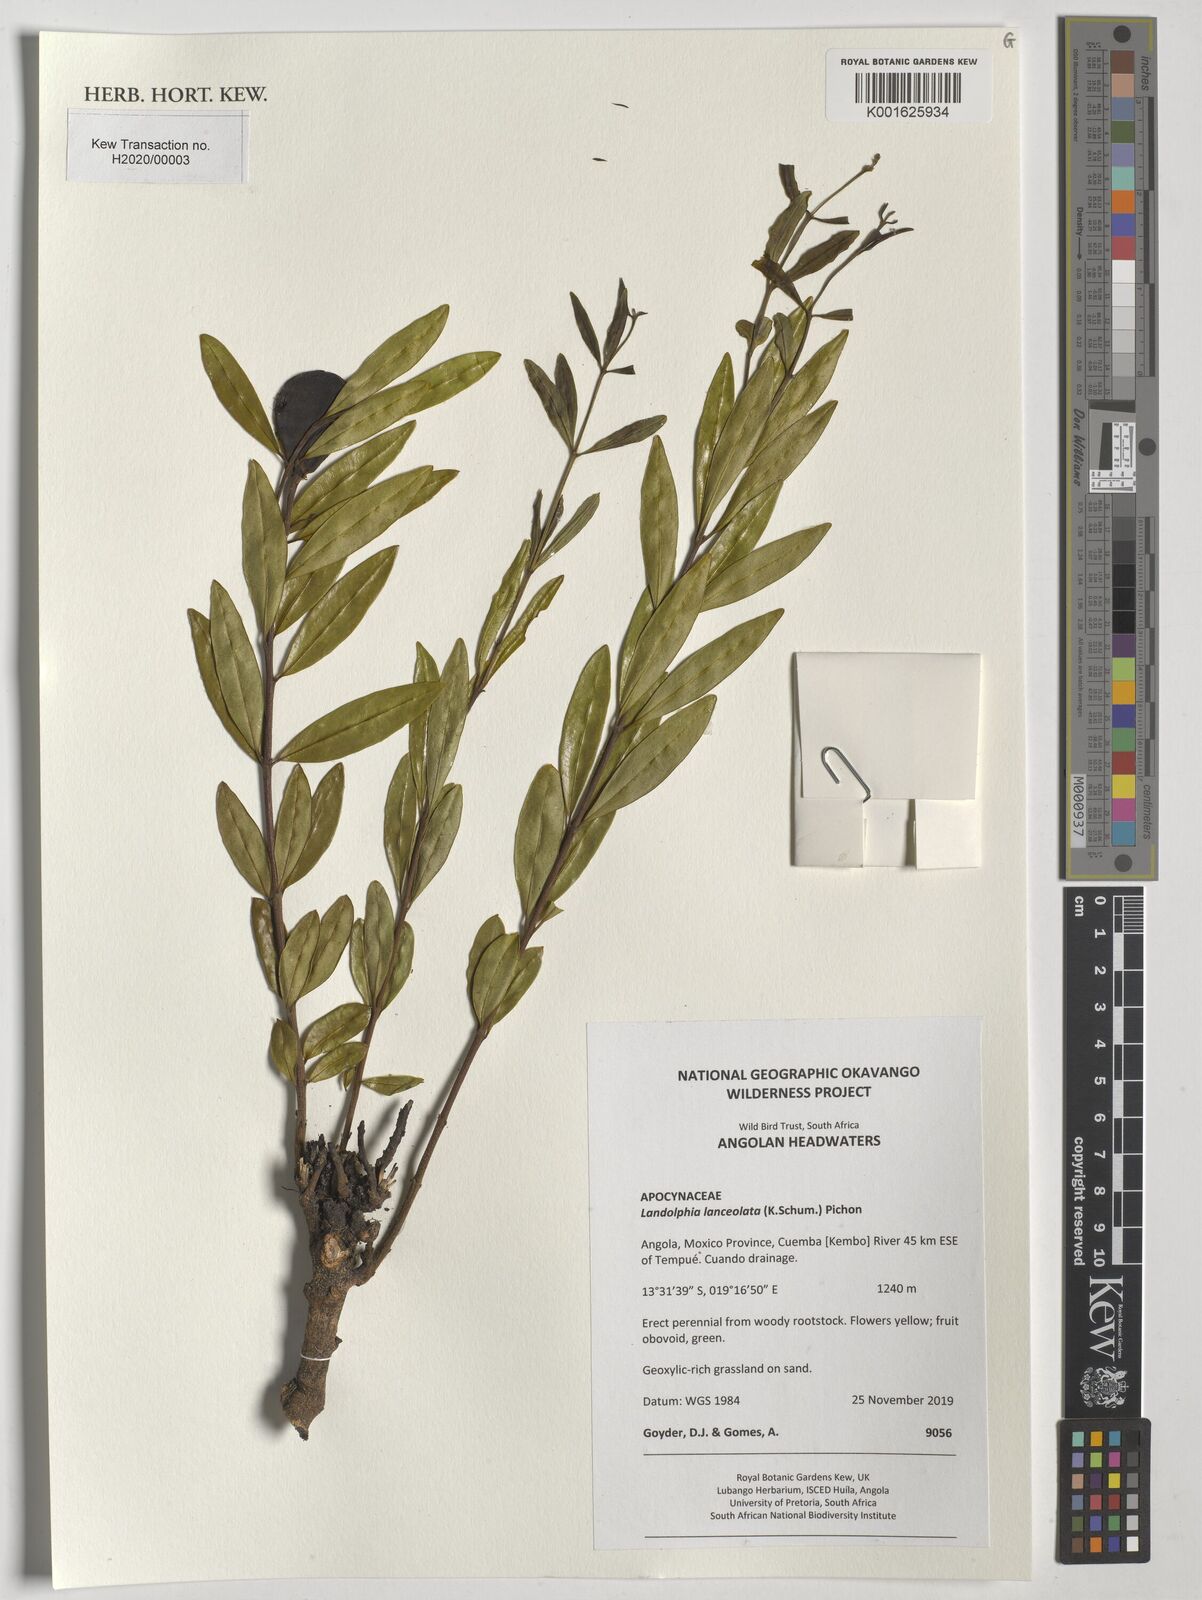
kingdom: Plantae
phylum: Tracheophyta
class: Magnoliopsida
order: Gentianales
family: Apocynaceae
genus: Landolphia
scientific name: Landolphia lanceolata
